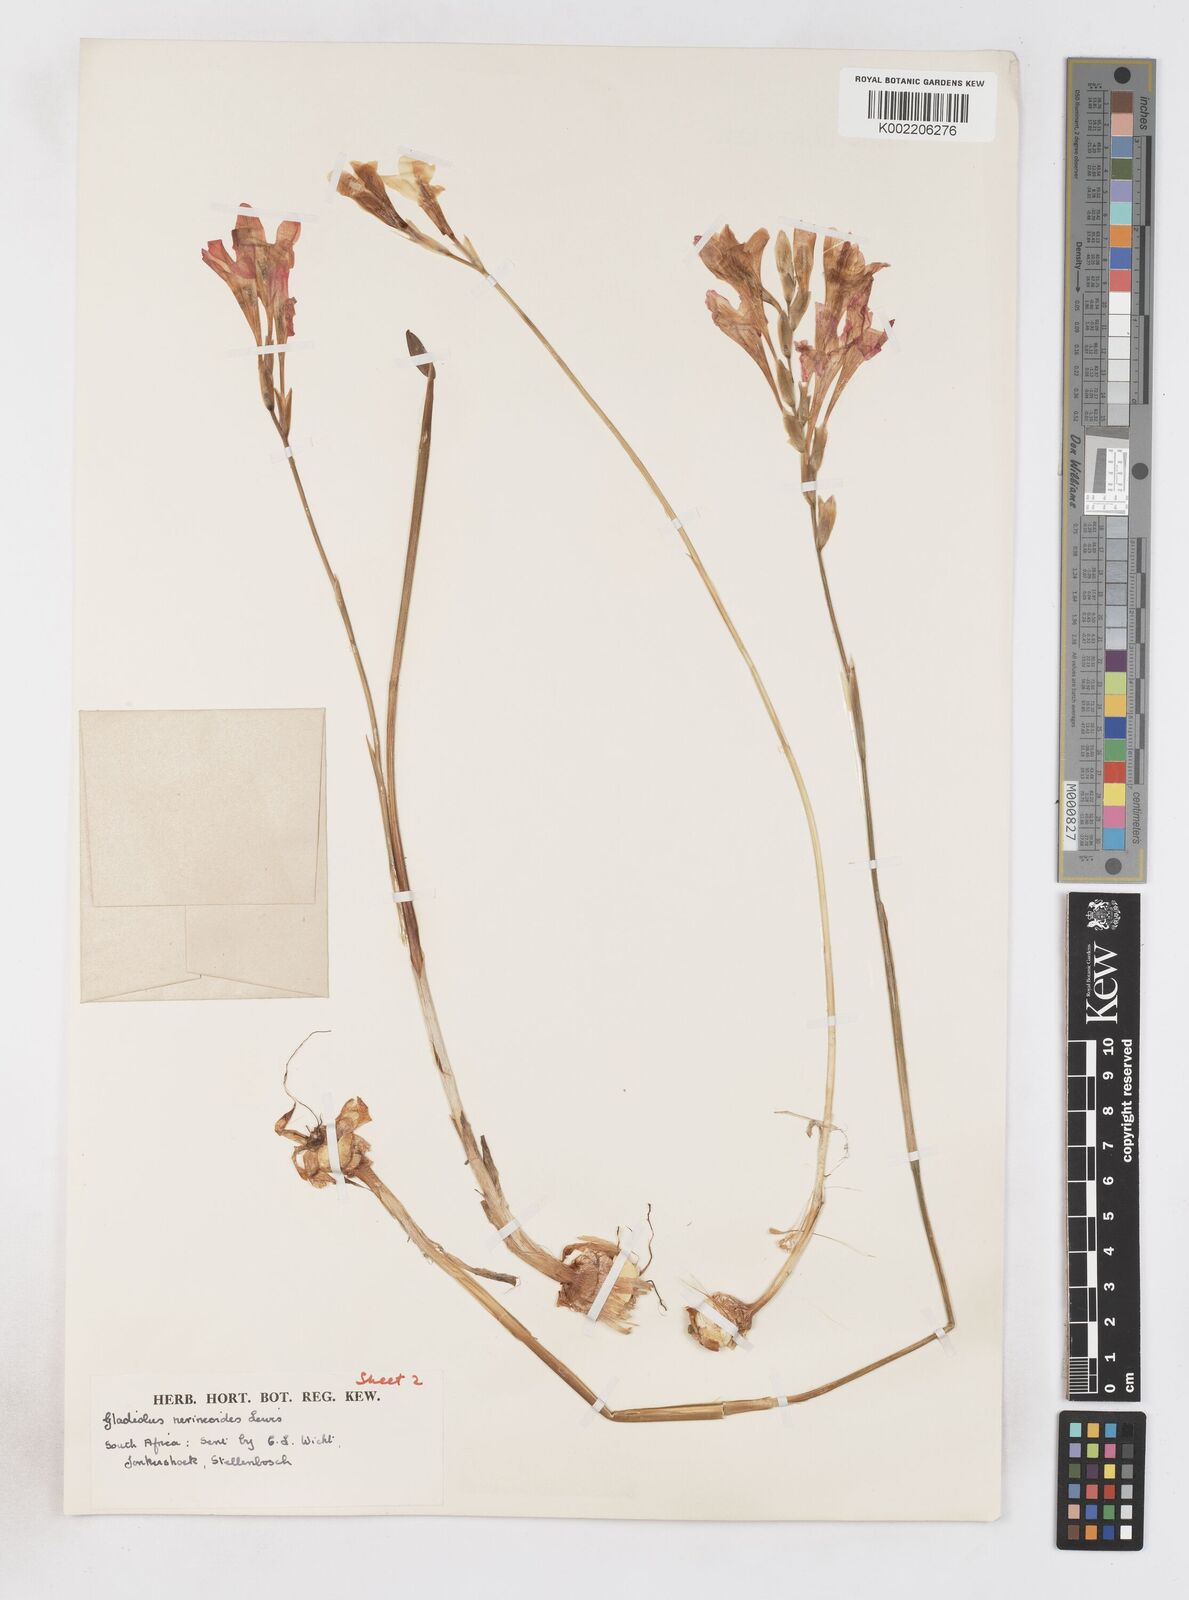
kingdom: Plantae
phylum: Tracheophyta
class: Liliopsida
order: Asparagales
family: Iridaceae
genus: Gladiolus
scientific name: Gladiolus nerineoides
